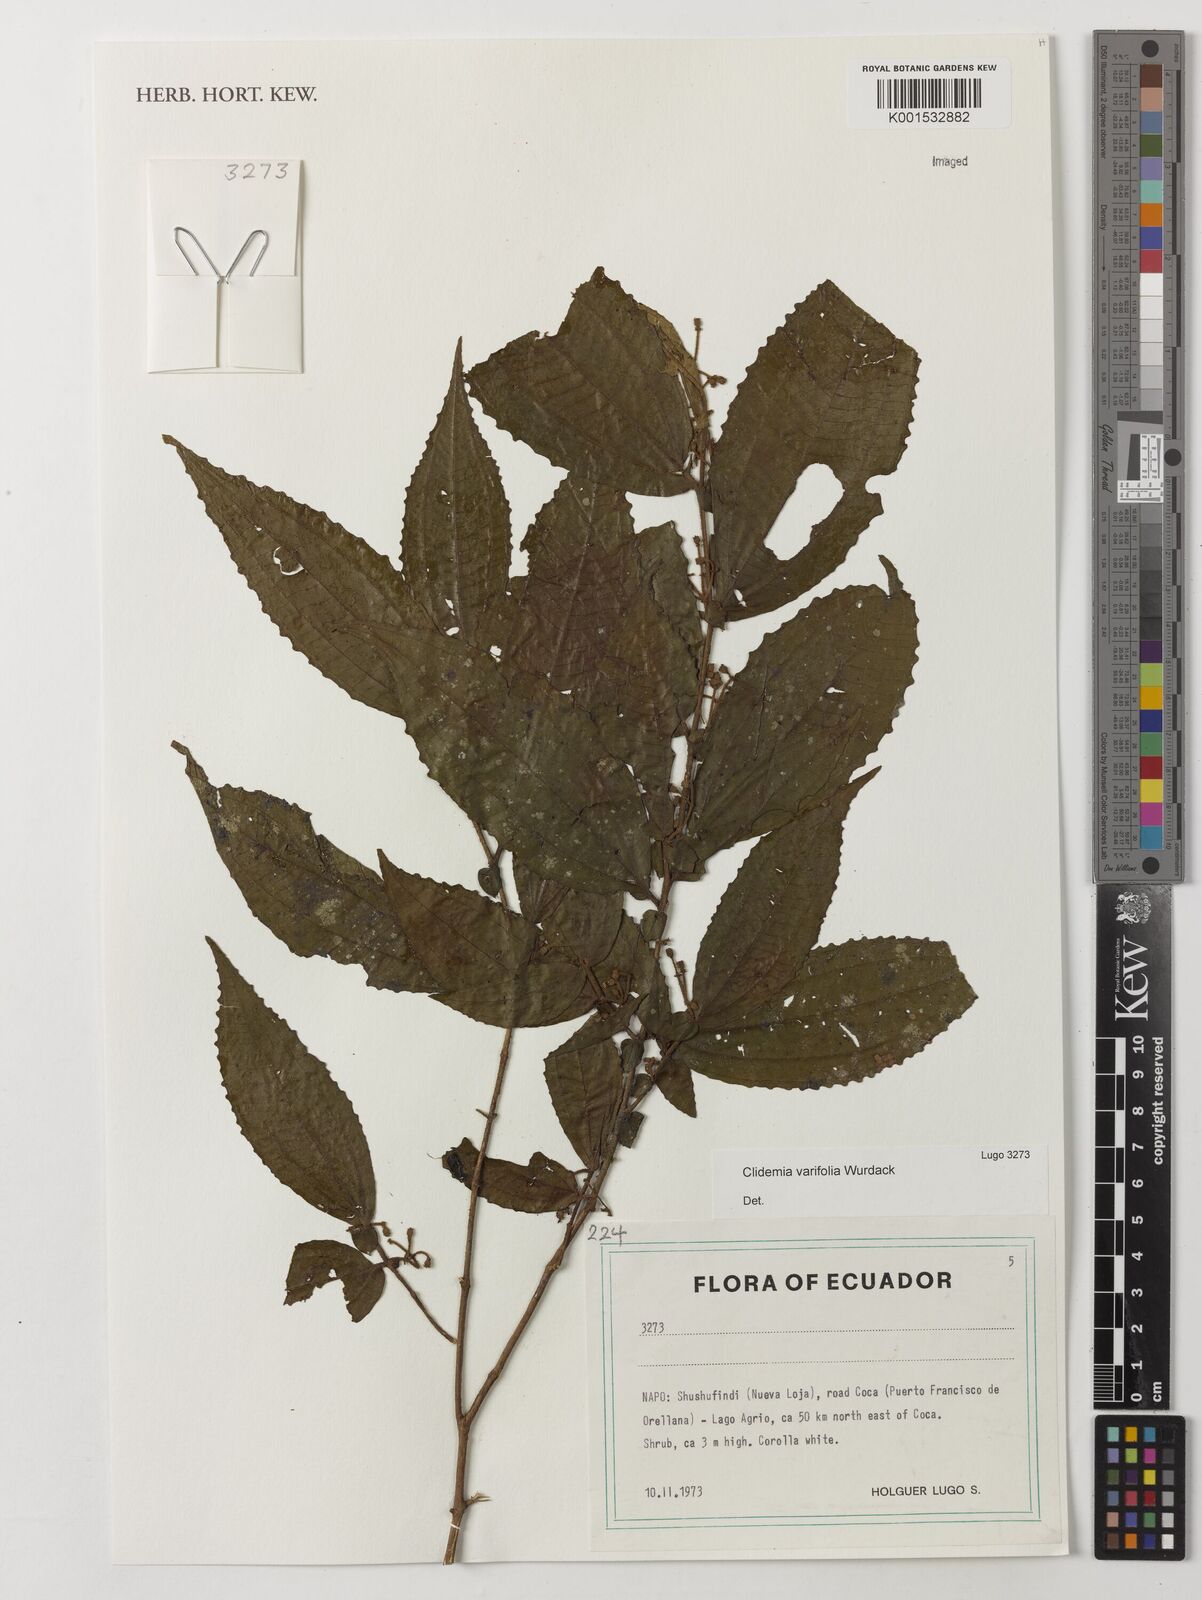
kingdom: Plantae
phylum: Tracheophyta
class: Magnoliopsida
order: Myrtales
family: Melastomataceae
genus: Miconia
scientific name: Miconia variifolia
